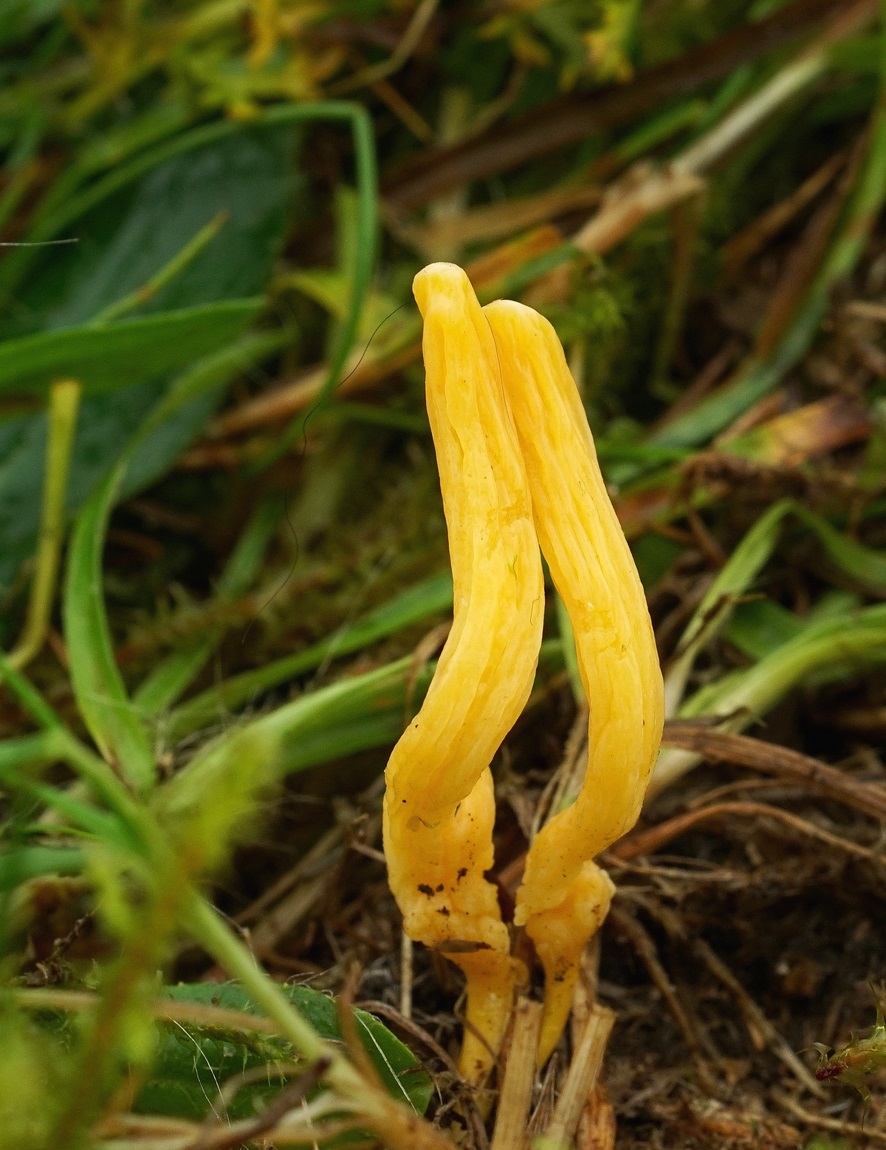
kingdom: Fungi
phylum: Basidiomycota
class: Agaricomycetes
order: Agaricales
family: Clavariaceae
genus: Clavulinopsis
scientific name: Clavulinopsis luteoalba
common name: abrikos-køllesvamp
